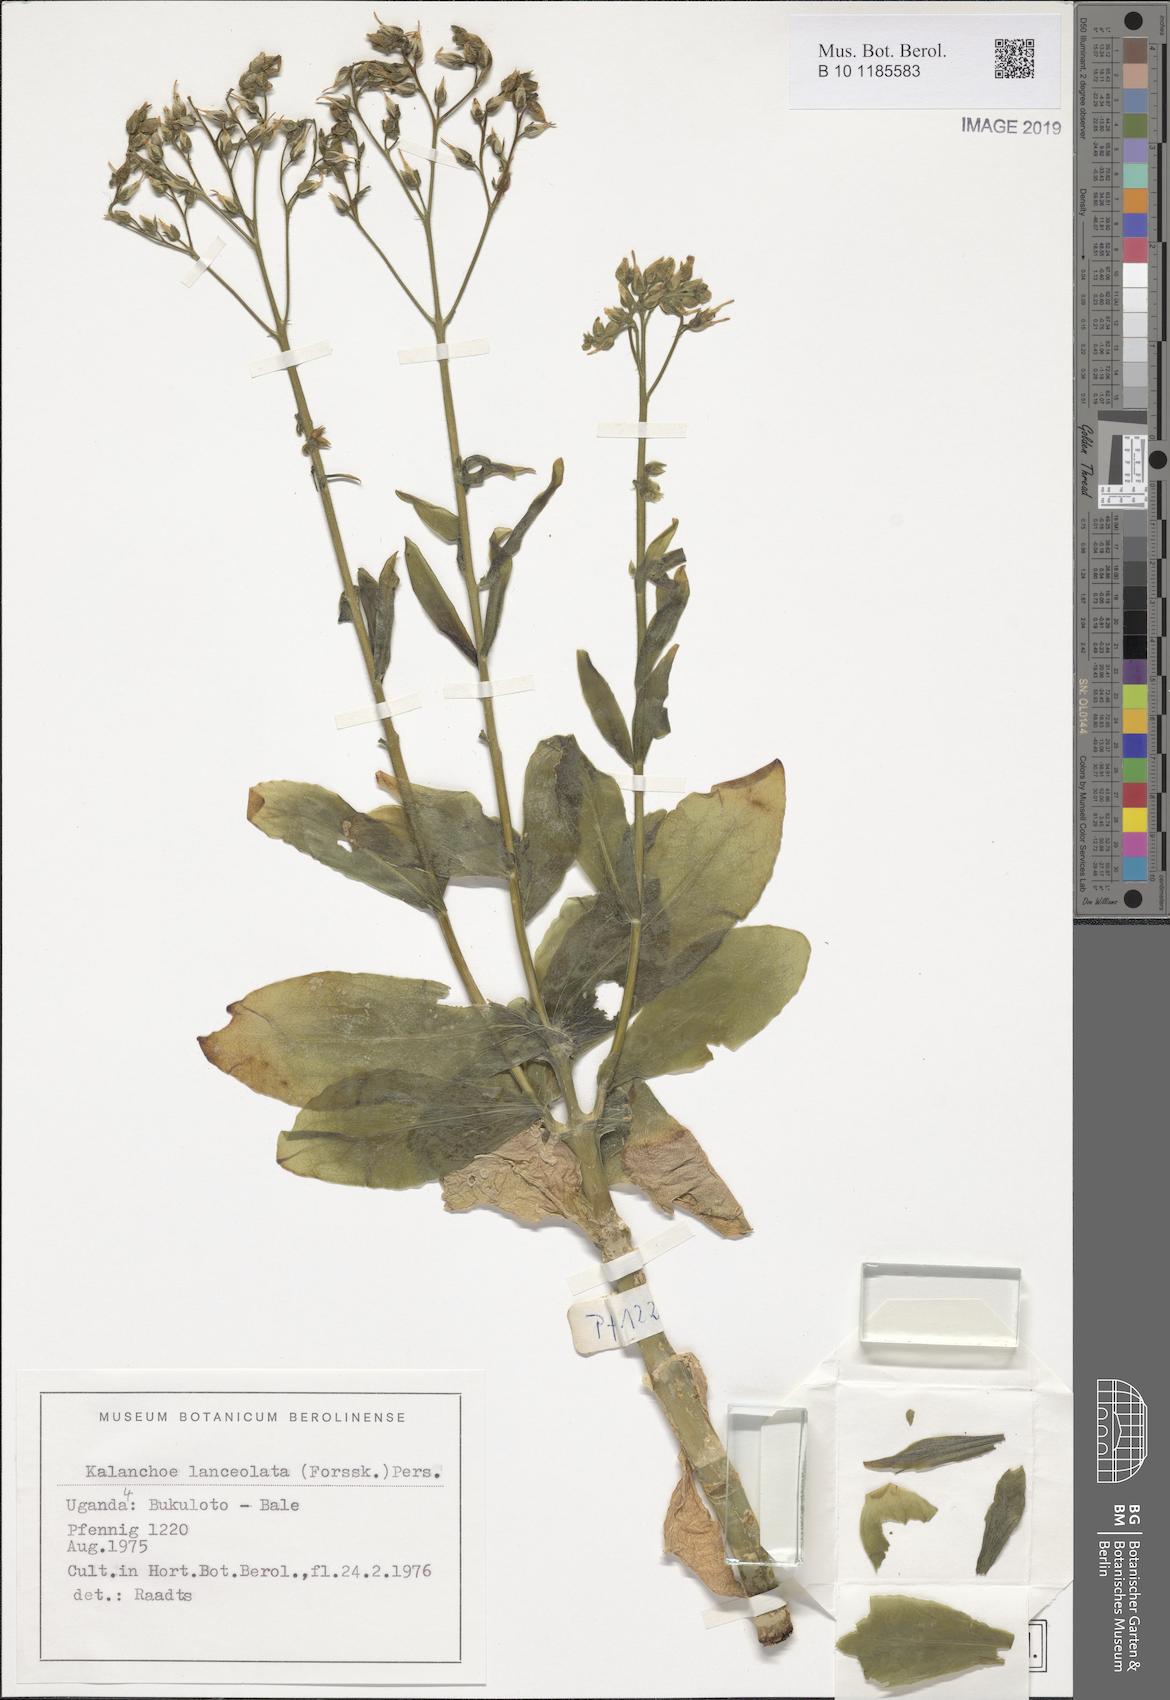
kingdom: Plantae
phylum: Tracheophyta
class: Magnoliopsida
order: Saxifragales
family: Crassulaceae
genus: Kalanchoe
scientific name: Kalanchoe lanceolata
